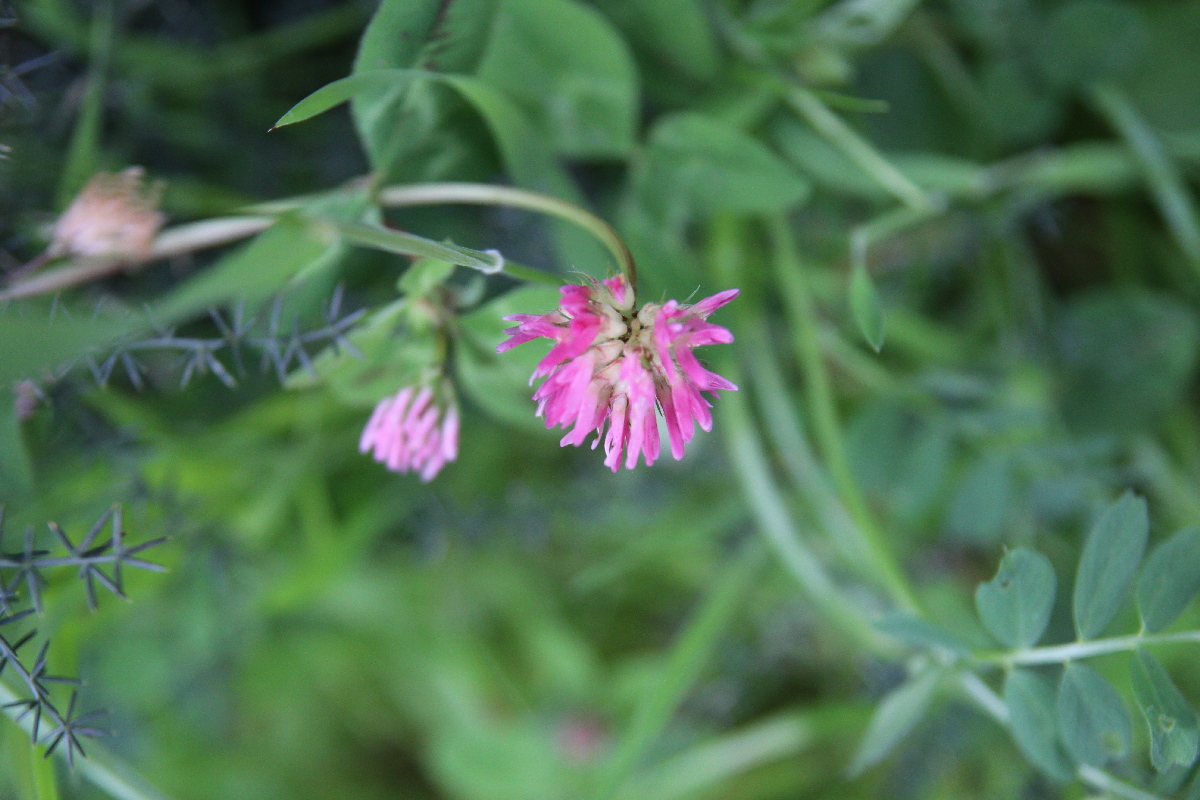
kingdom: Plantae
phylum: Tracheophyta
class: Magnoliopsida
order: Fabales
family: Fabaceae
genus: Trifolium
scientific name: Trifolium physodes
